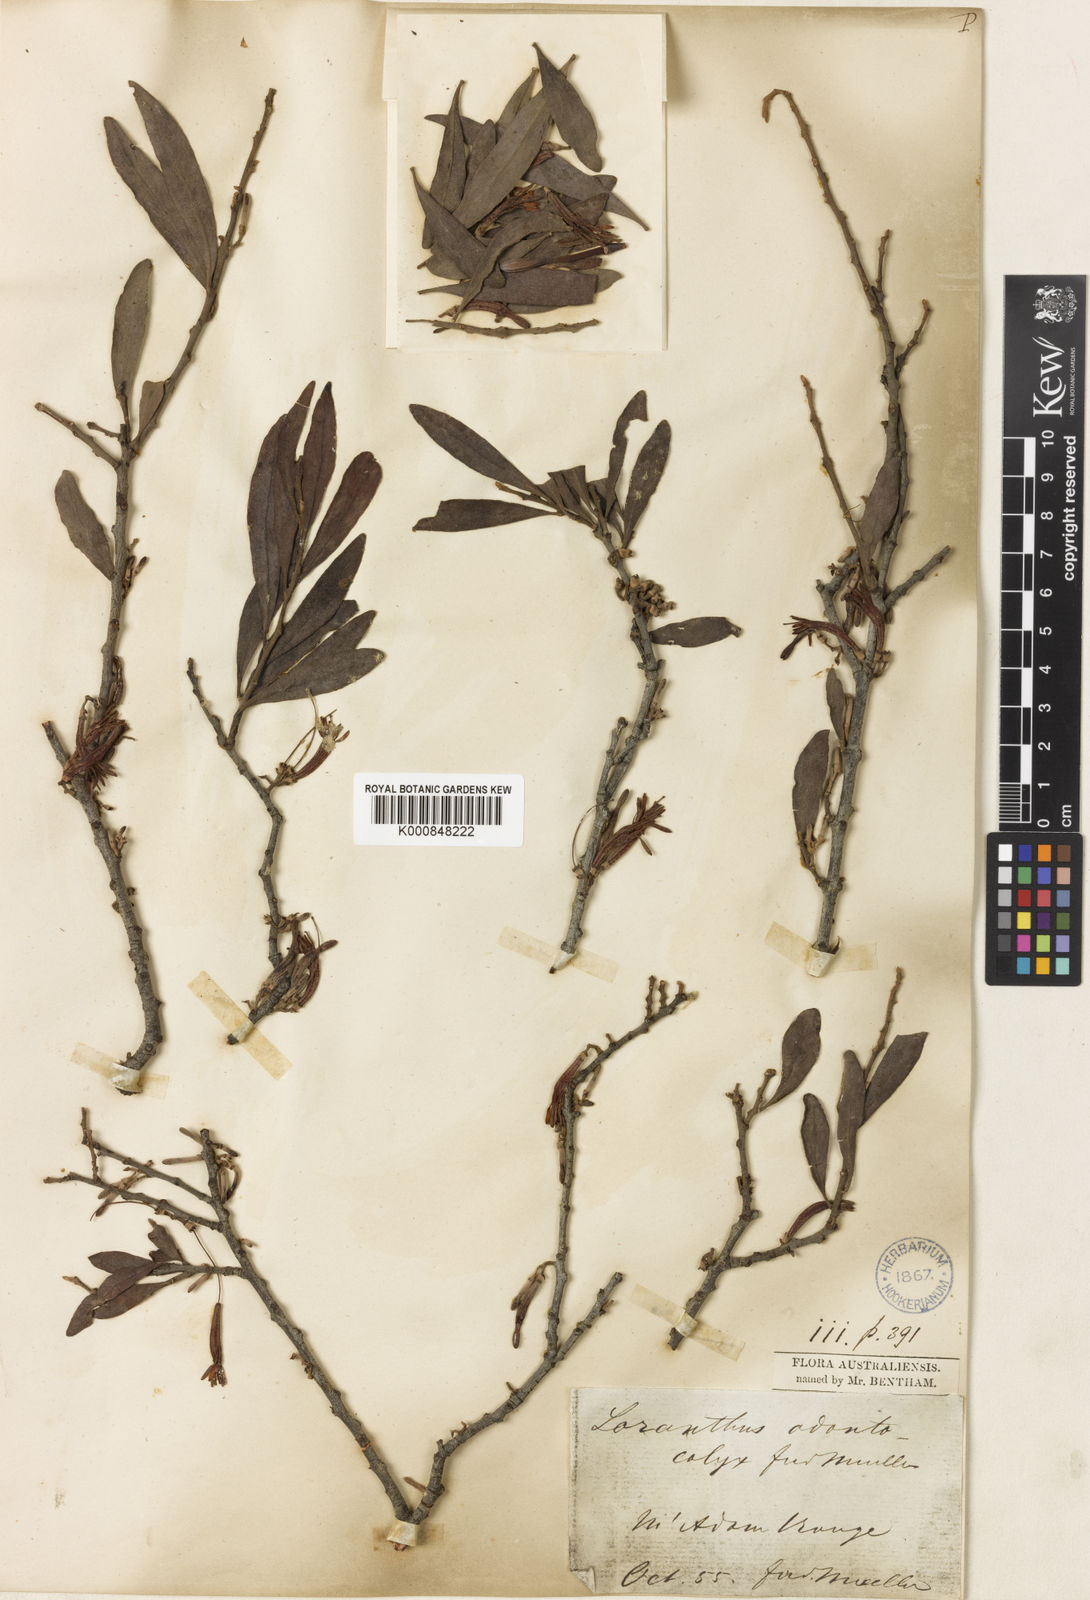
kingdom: Plantae
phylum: Tracheophyta
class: Magnoliopsida
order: Santalales
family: Loranthaceae
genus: Dendrophthoe
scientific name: Dendrophthoe odontocalyx
